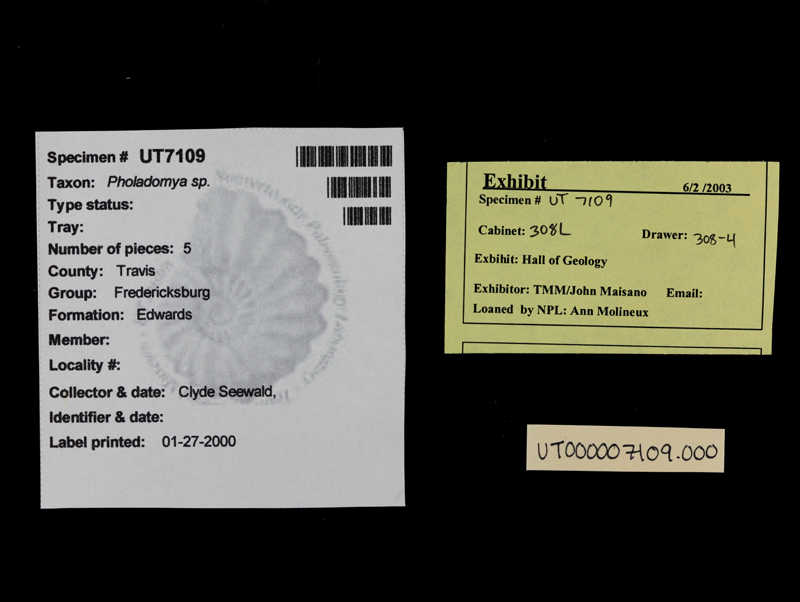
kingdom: Animalia
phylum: Mollusca
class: Bivalvia
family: Pholadomyidae
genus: Pholadomya
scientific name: Pholadomya
